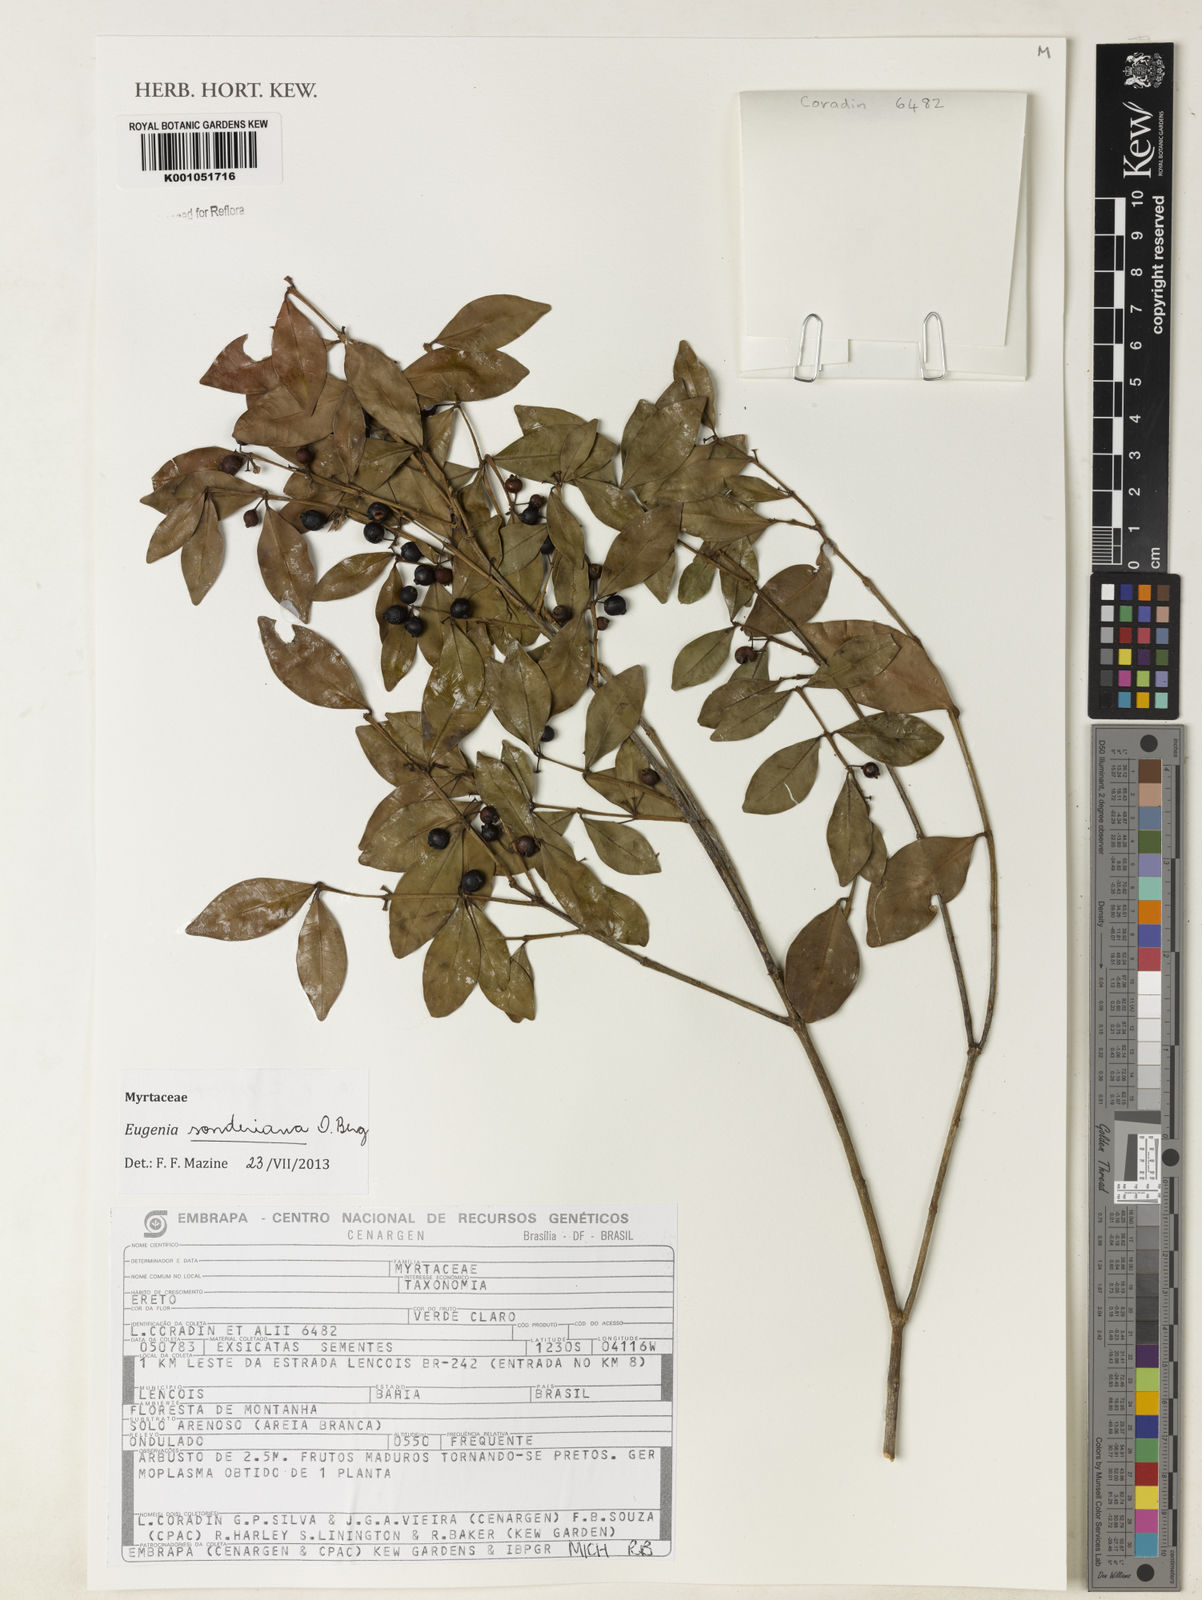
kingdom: Plantae
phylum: Tracheophyta
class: Magnoliopsida
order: Myrtales
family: Myrtaceae
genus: Eugenia
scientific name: Eugenia sonderiana
